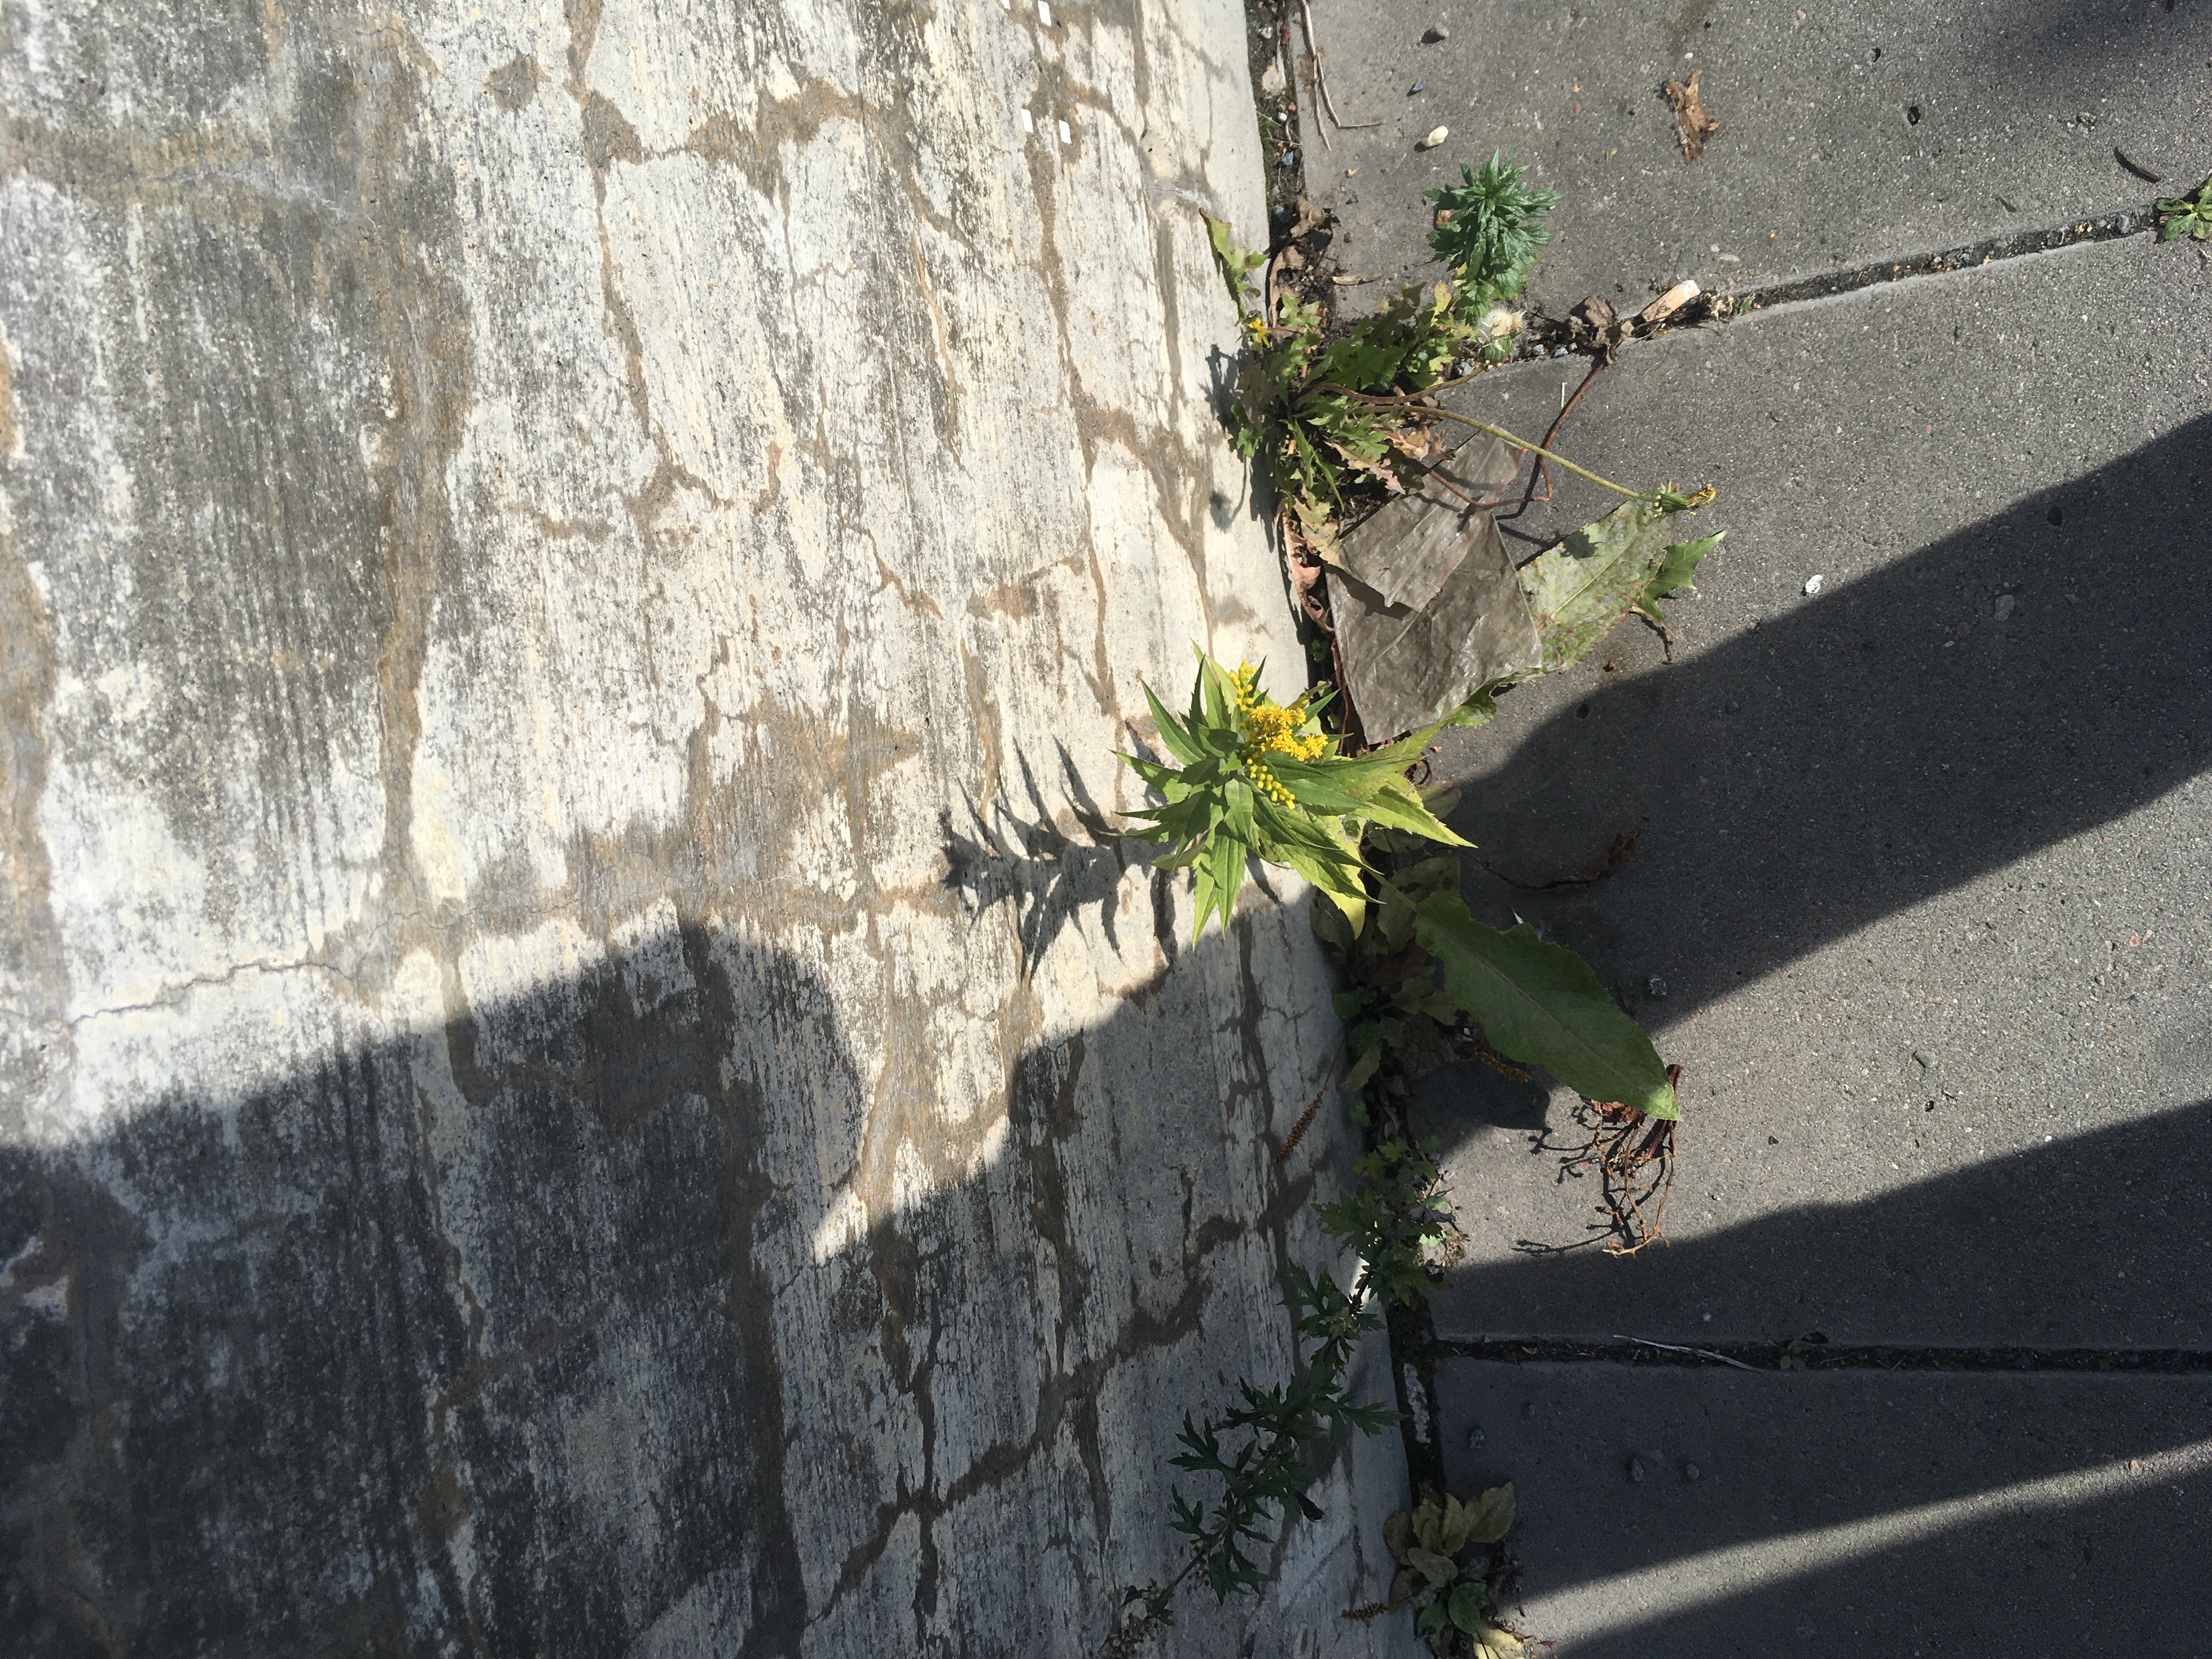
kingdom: Plantae
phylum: Tracheophyta
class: Magnoliopsida
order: Asterales
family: Asteraceae
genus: Solidago
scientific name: Solidago canadensis
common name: kanadagullris
